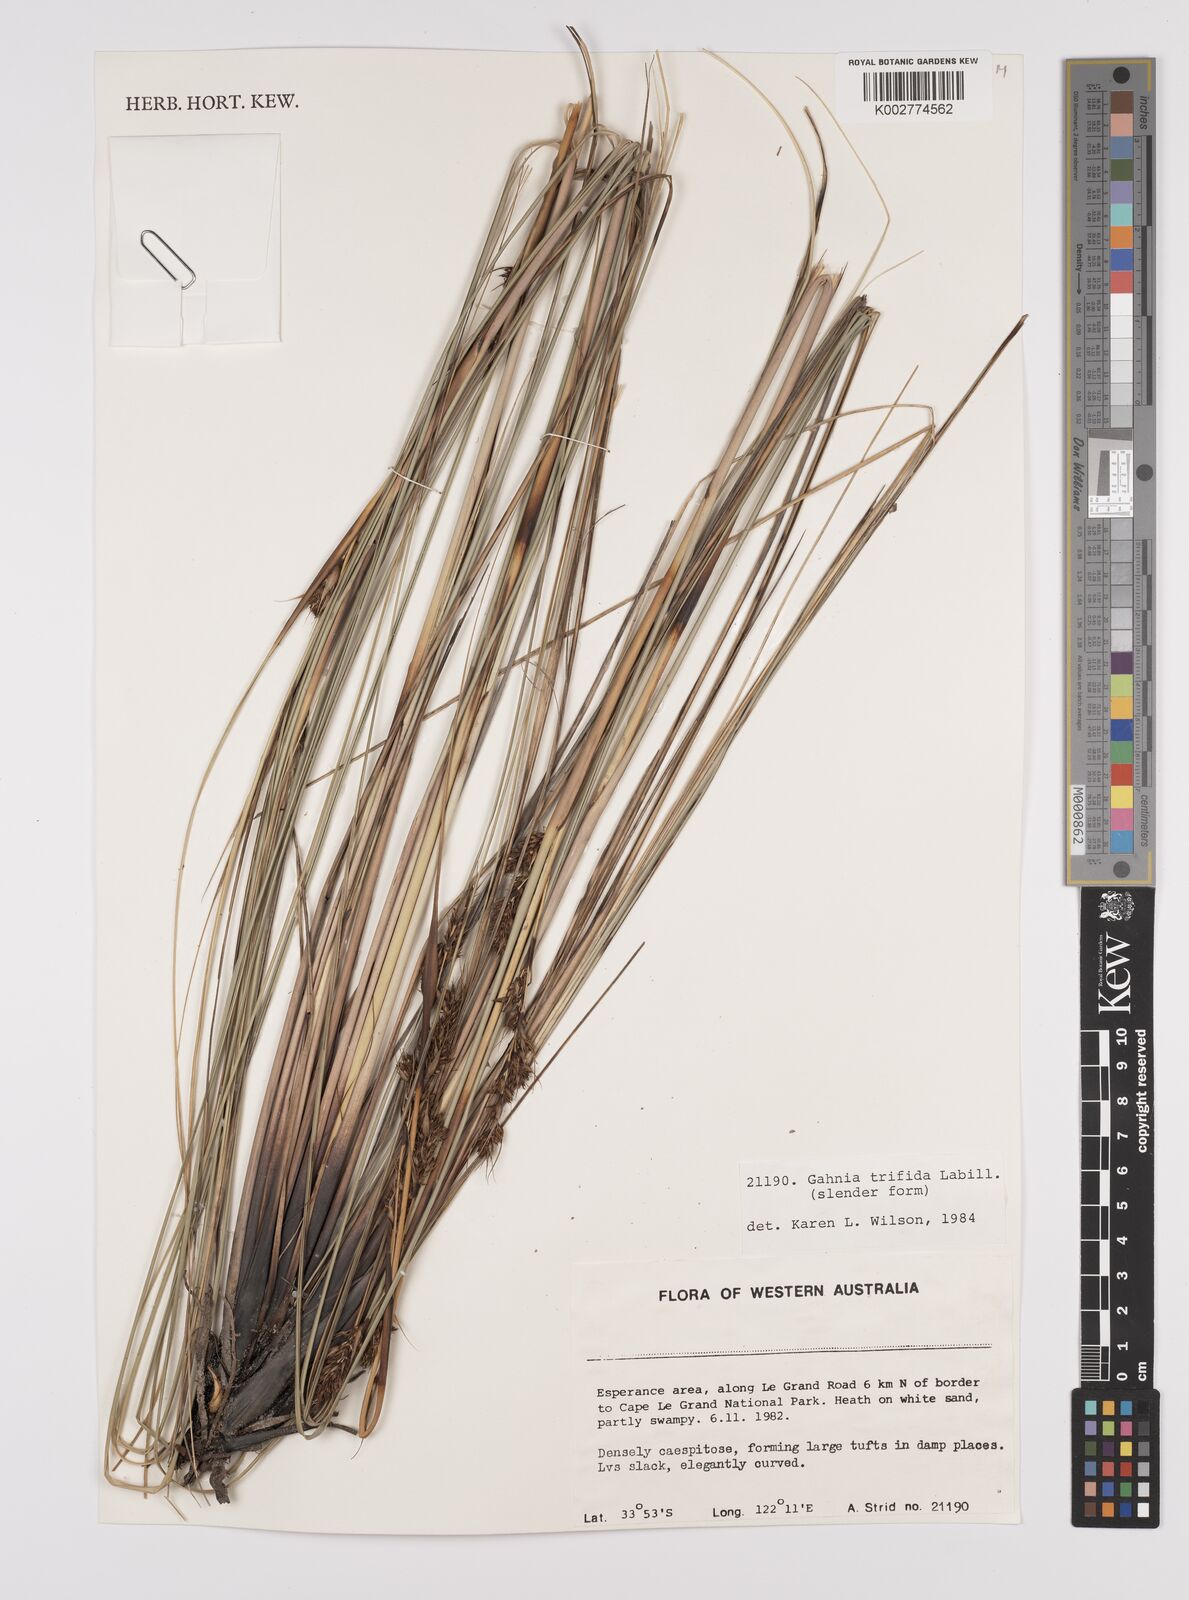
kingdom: Plantae
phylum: Tracheophyta
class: Liliopsida
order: Poales
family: Cyperaceae
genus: Gahnia
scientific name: Gahnia trifida
